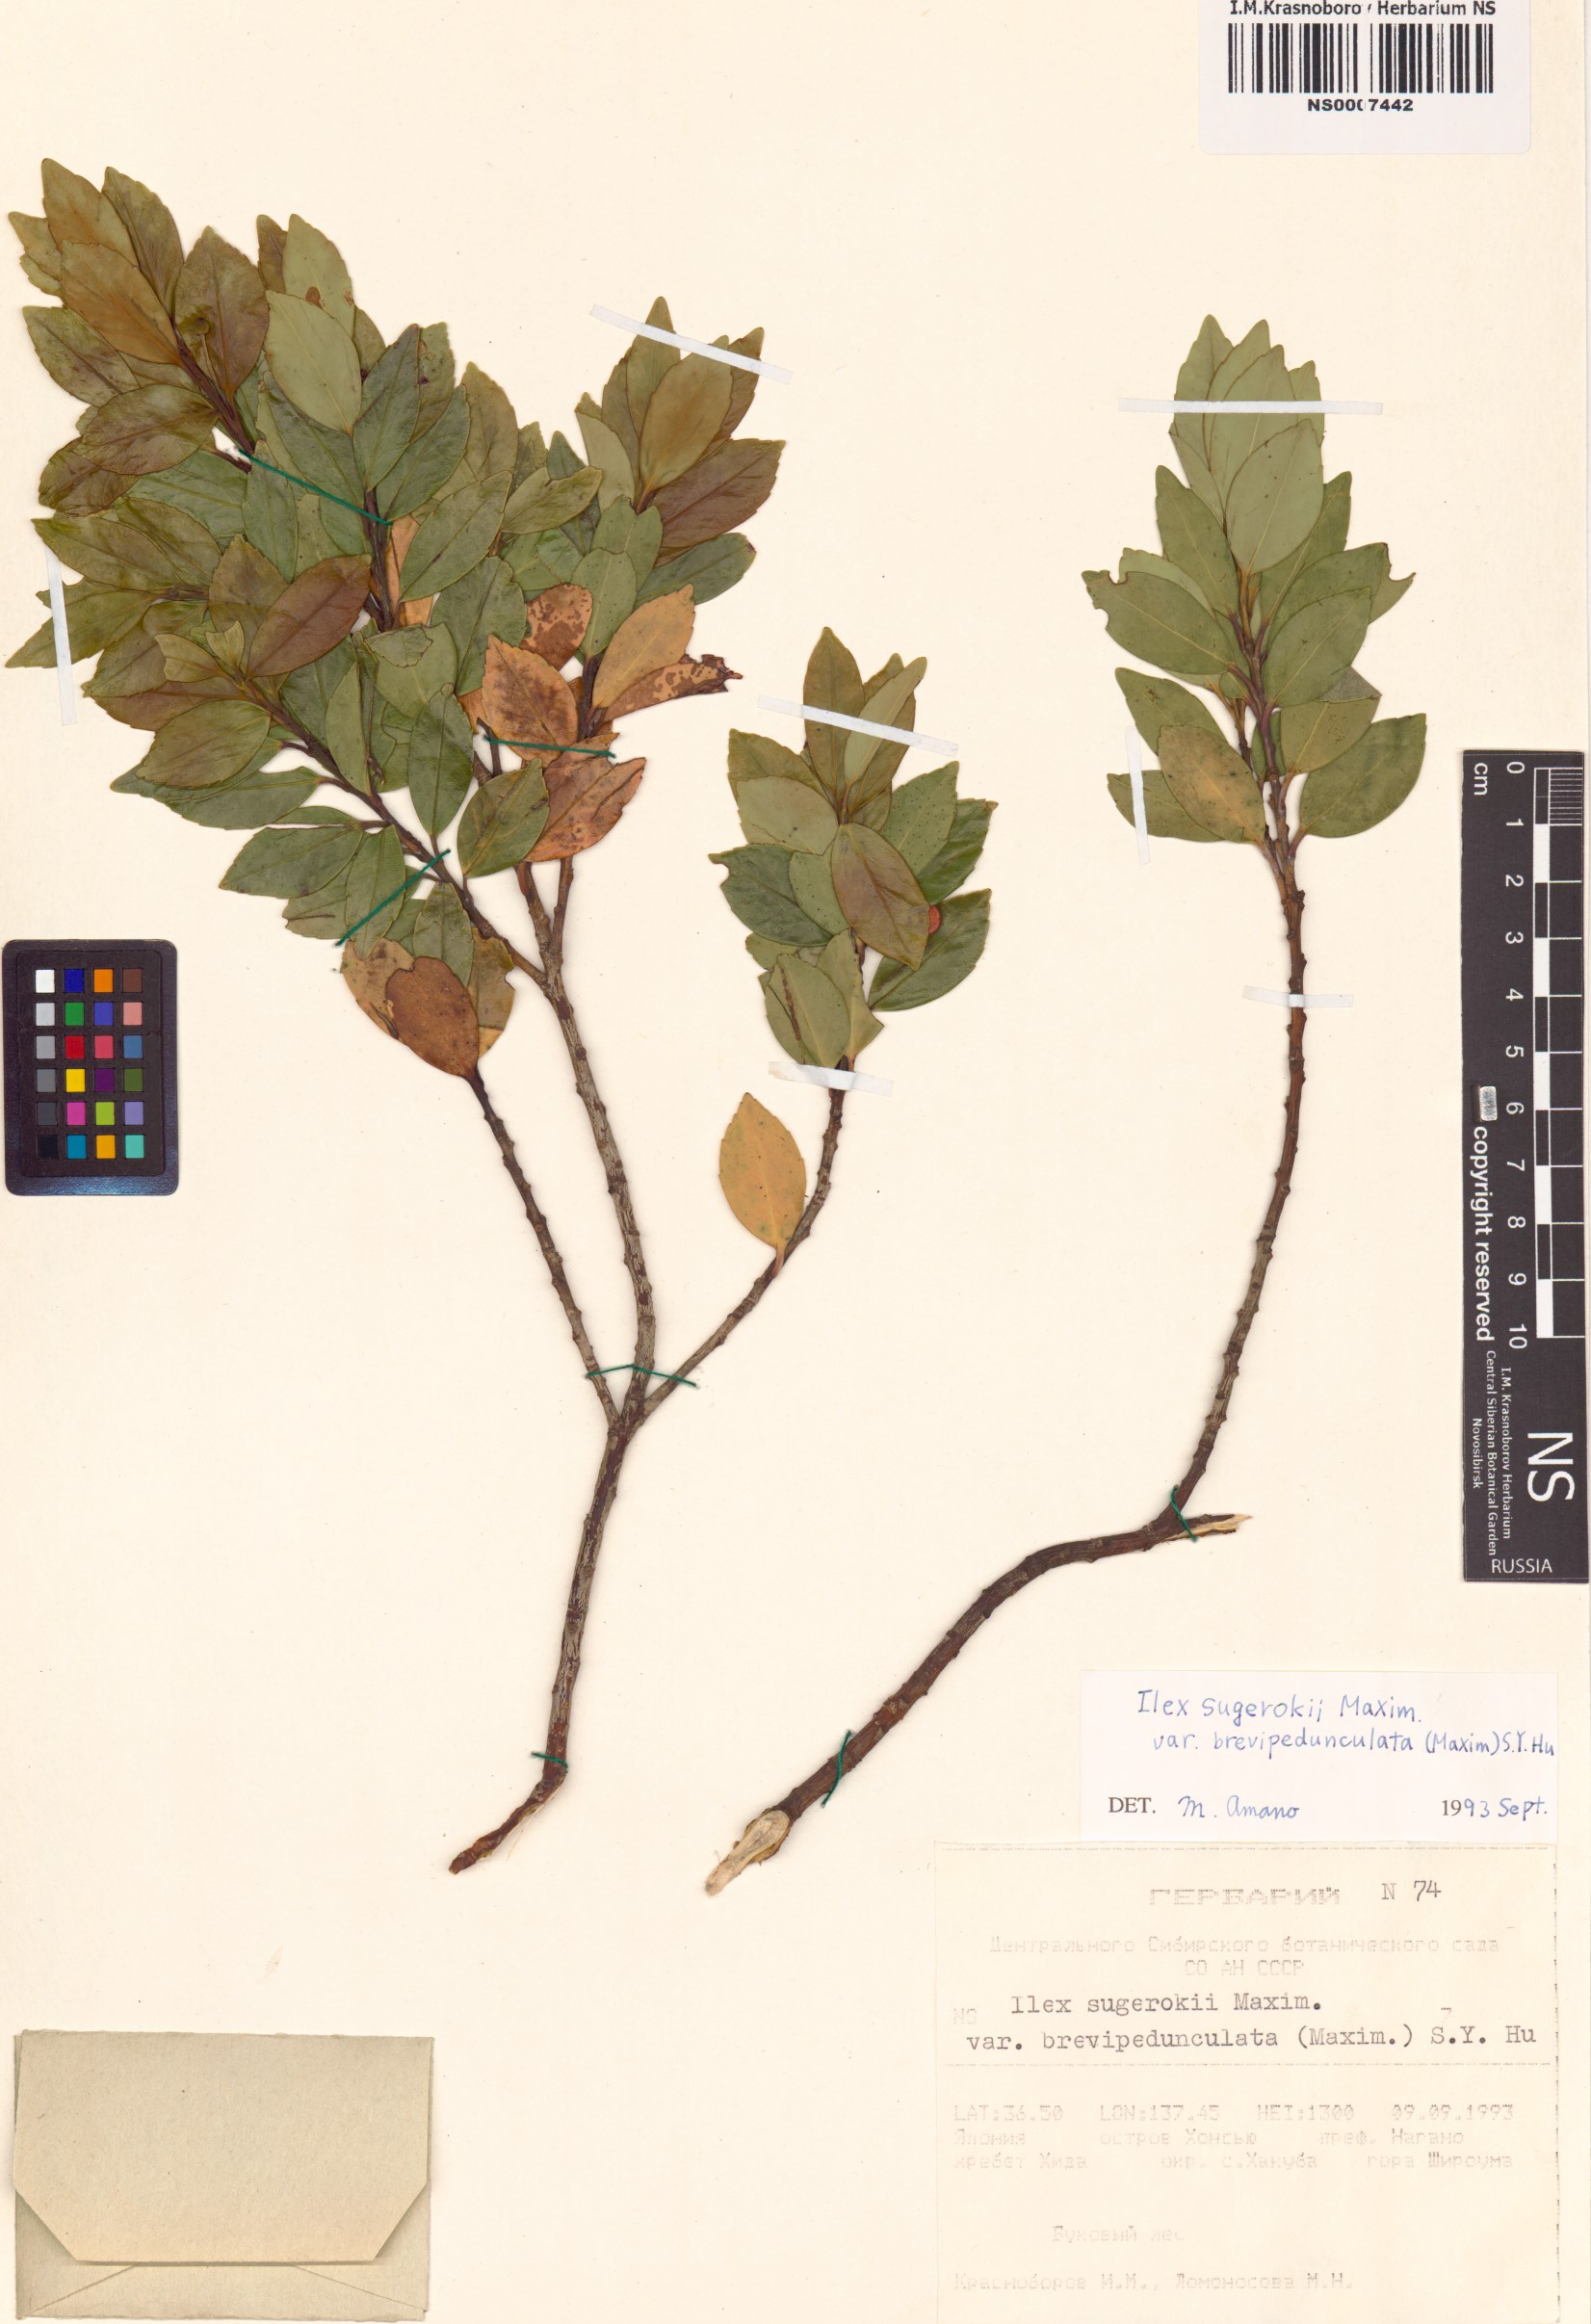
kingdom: Plantae
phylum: Tracheophyta
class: Magnoliopsida
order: Aquifoliales
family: Aquifoliaceae
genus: Ilex
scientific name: Ilex sugerokii
